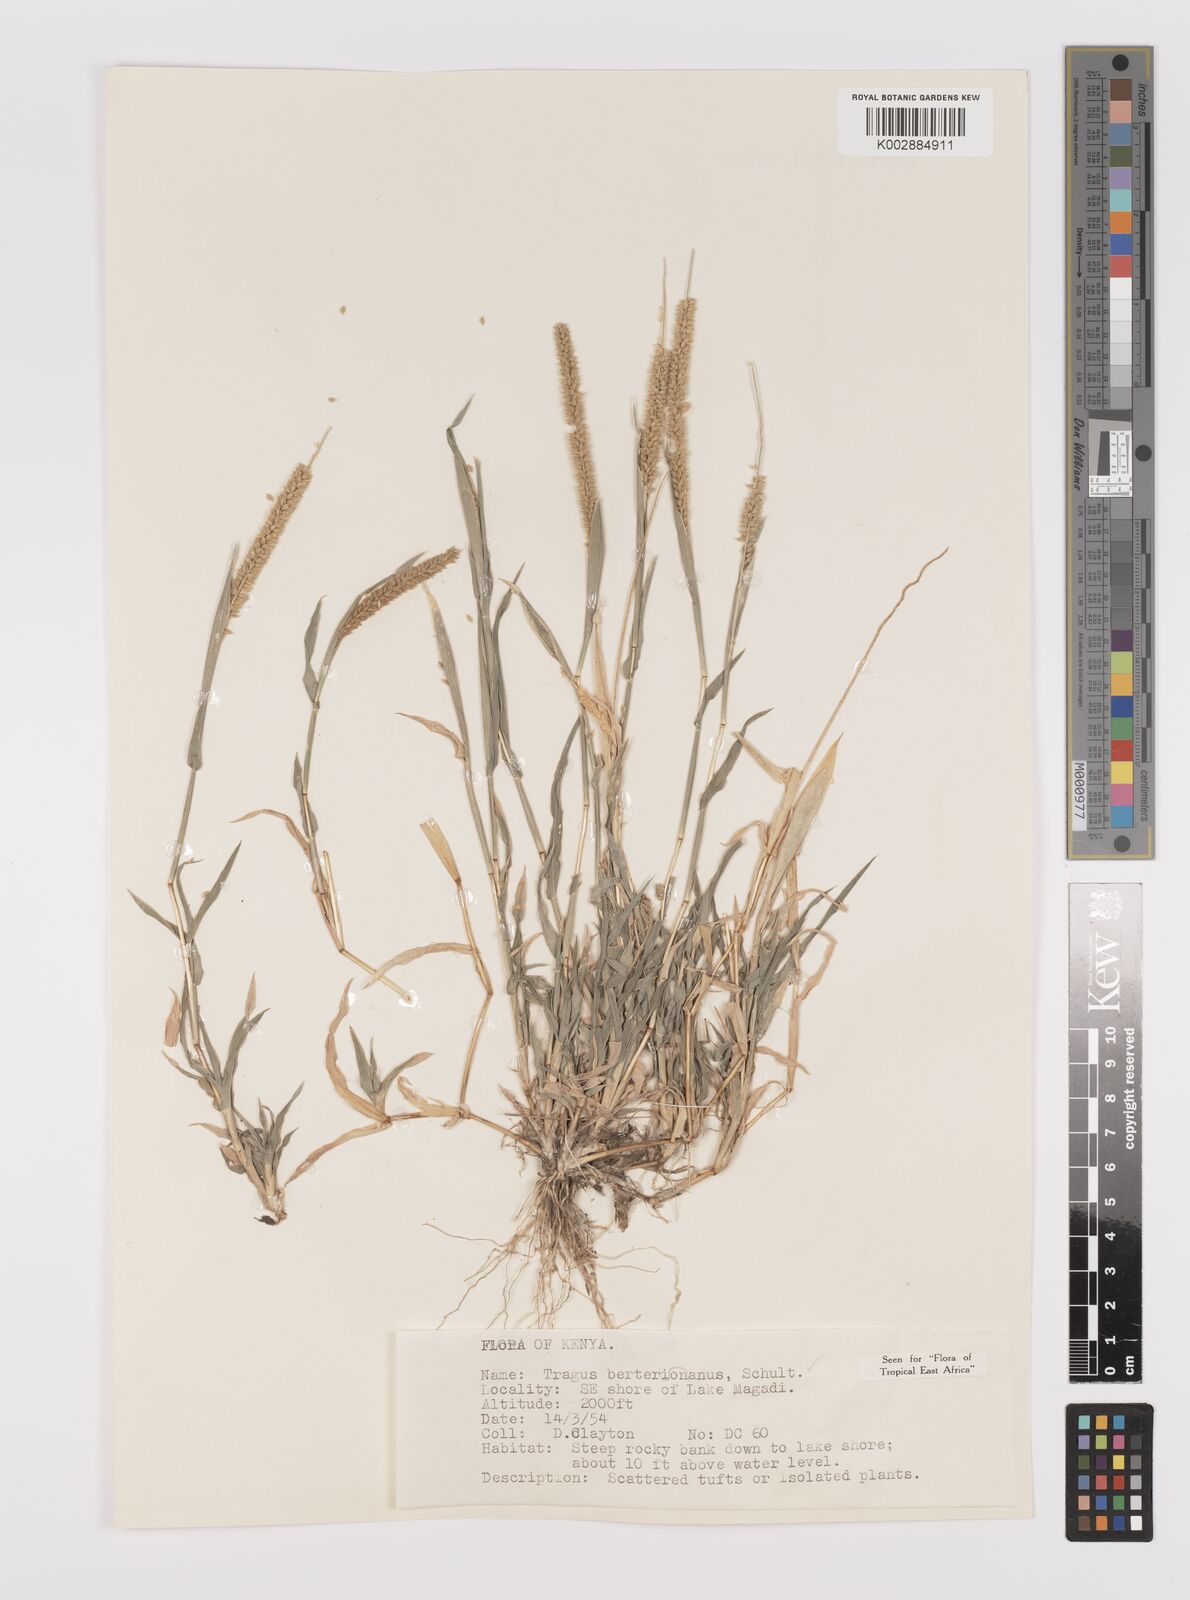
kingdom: Plantae
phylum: Tracheophyta
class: Liliopsida
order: Poales
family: Poaceae
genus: Tragus
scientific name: Tragus berteronianus
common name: African bur-grass
